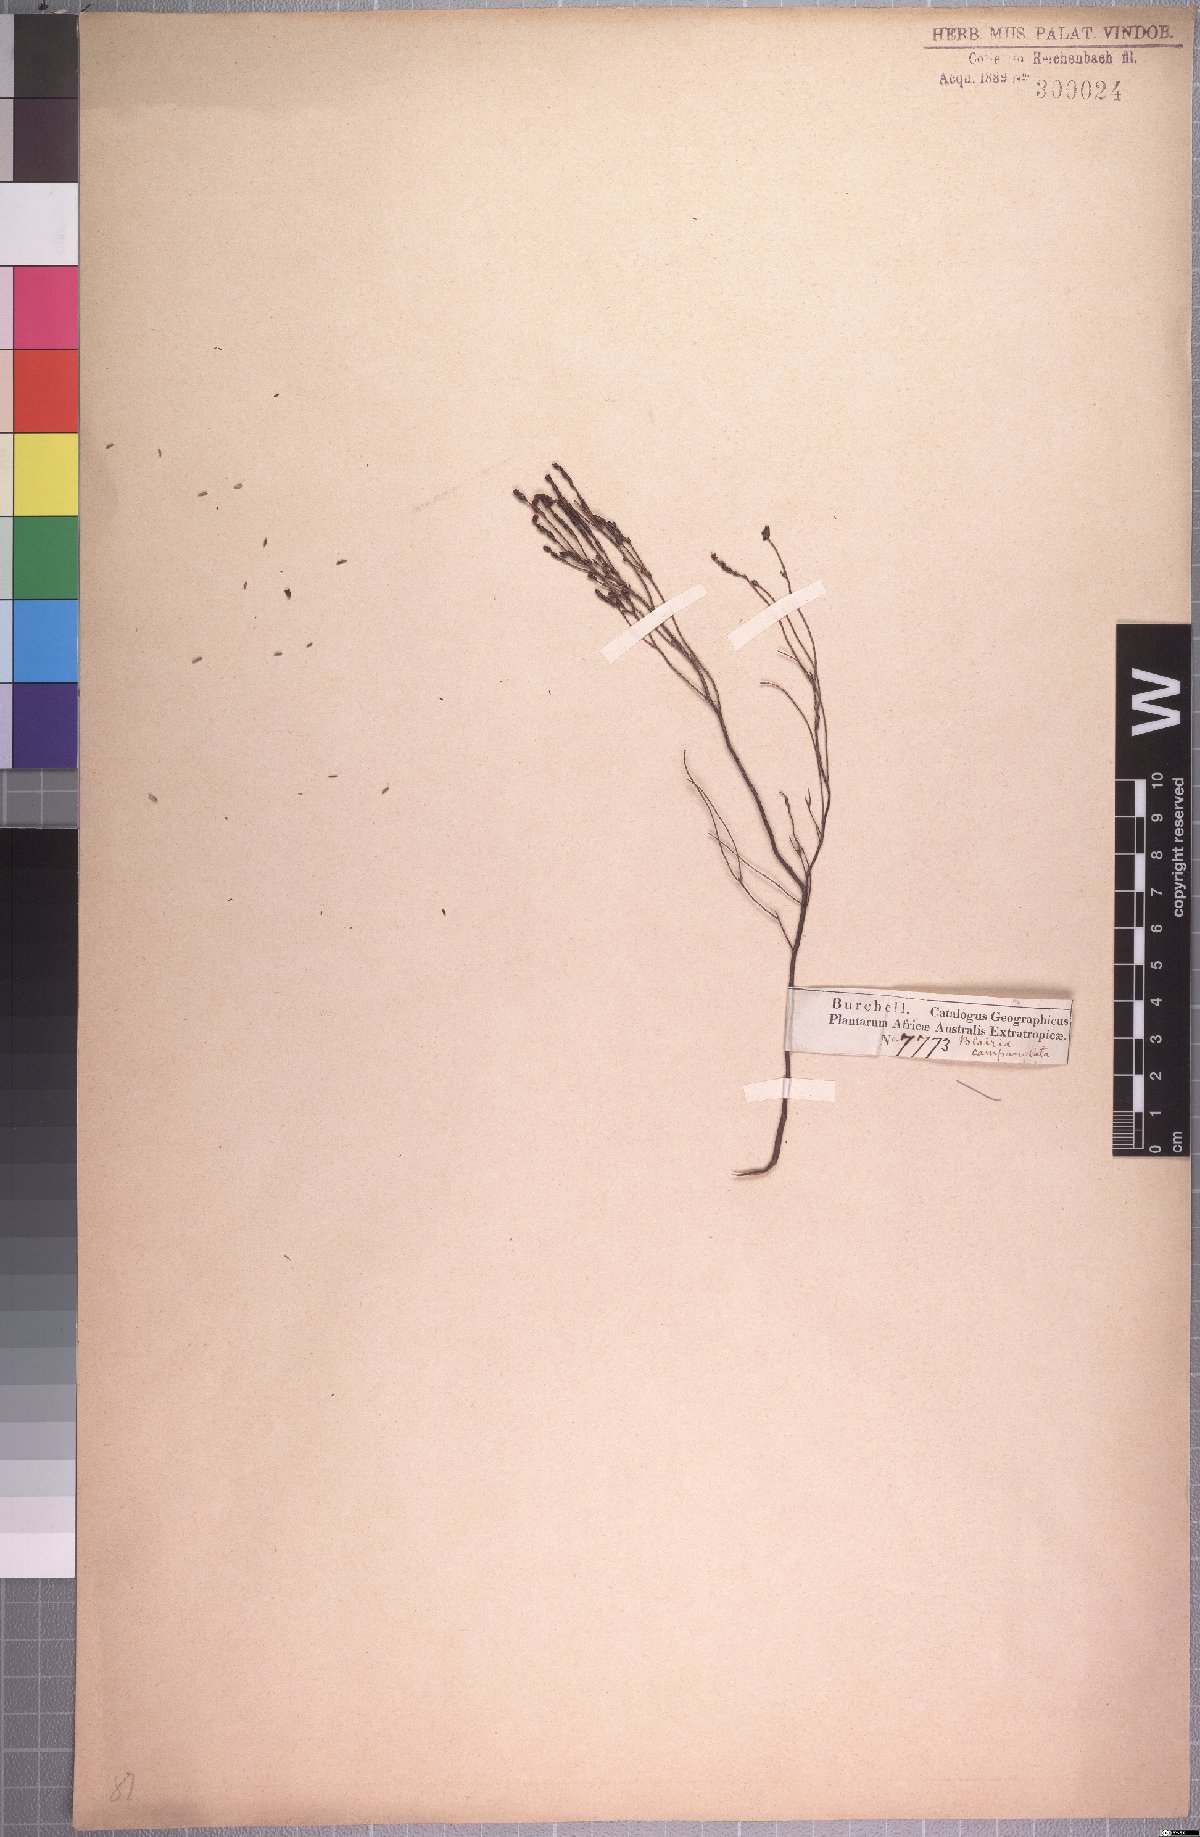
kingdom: Plantae
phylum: Tracheophyta
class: Magnoliopsida
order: Ericales
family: Ericaceae
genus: Erica
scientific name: Erica equisetifolia
